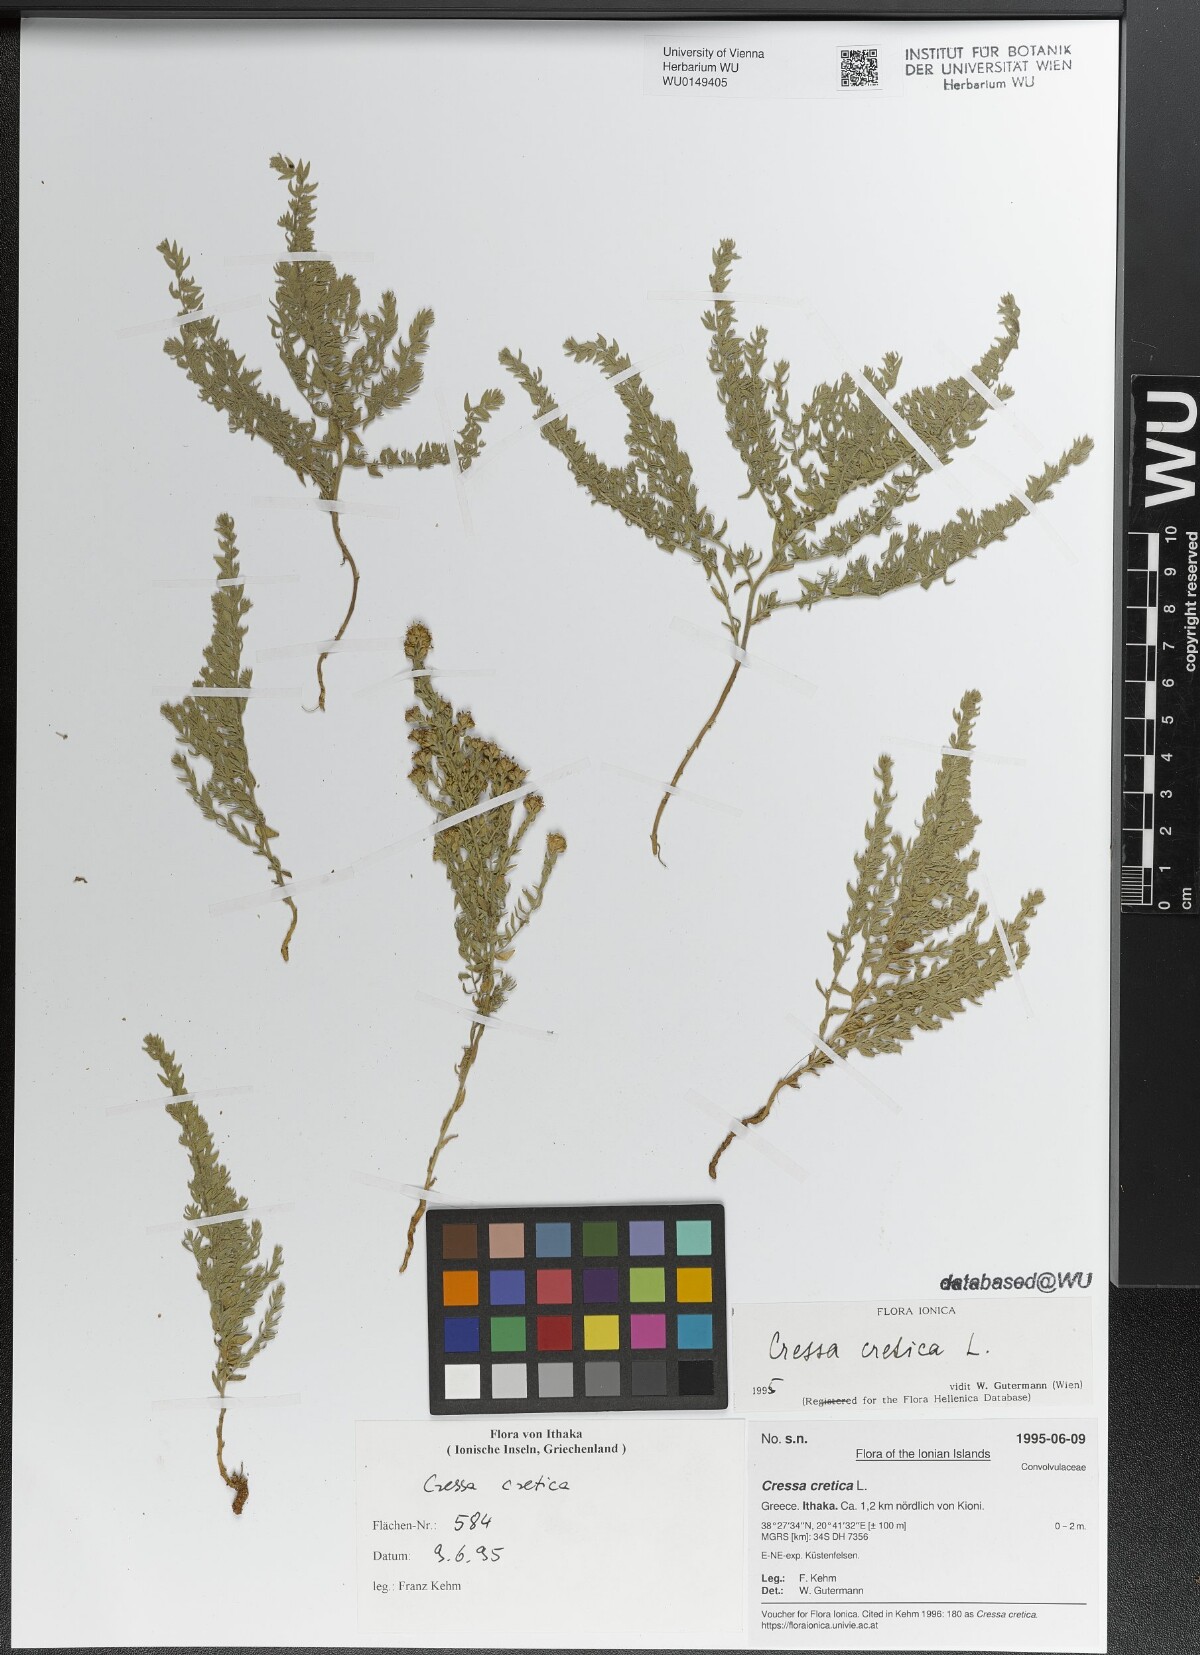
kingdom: Plantae
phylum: Tracheophyta
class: Magnoliopsida
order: Solanales
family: Convolvulaceae
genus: Cressa
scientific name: Cressa cretica
